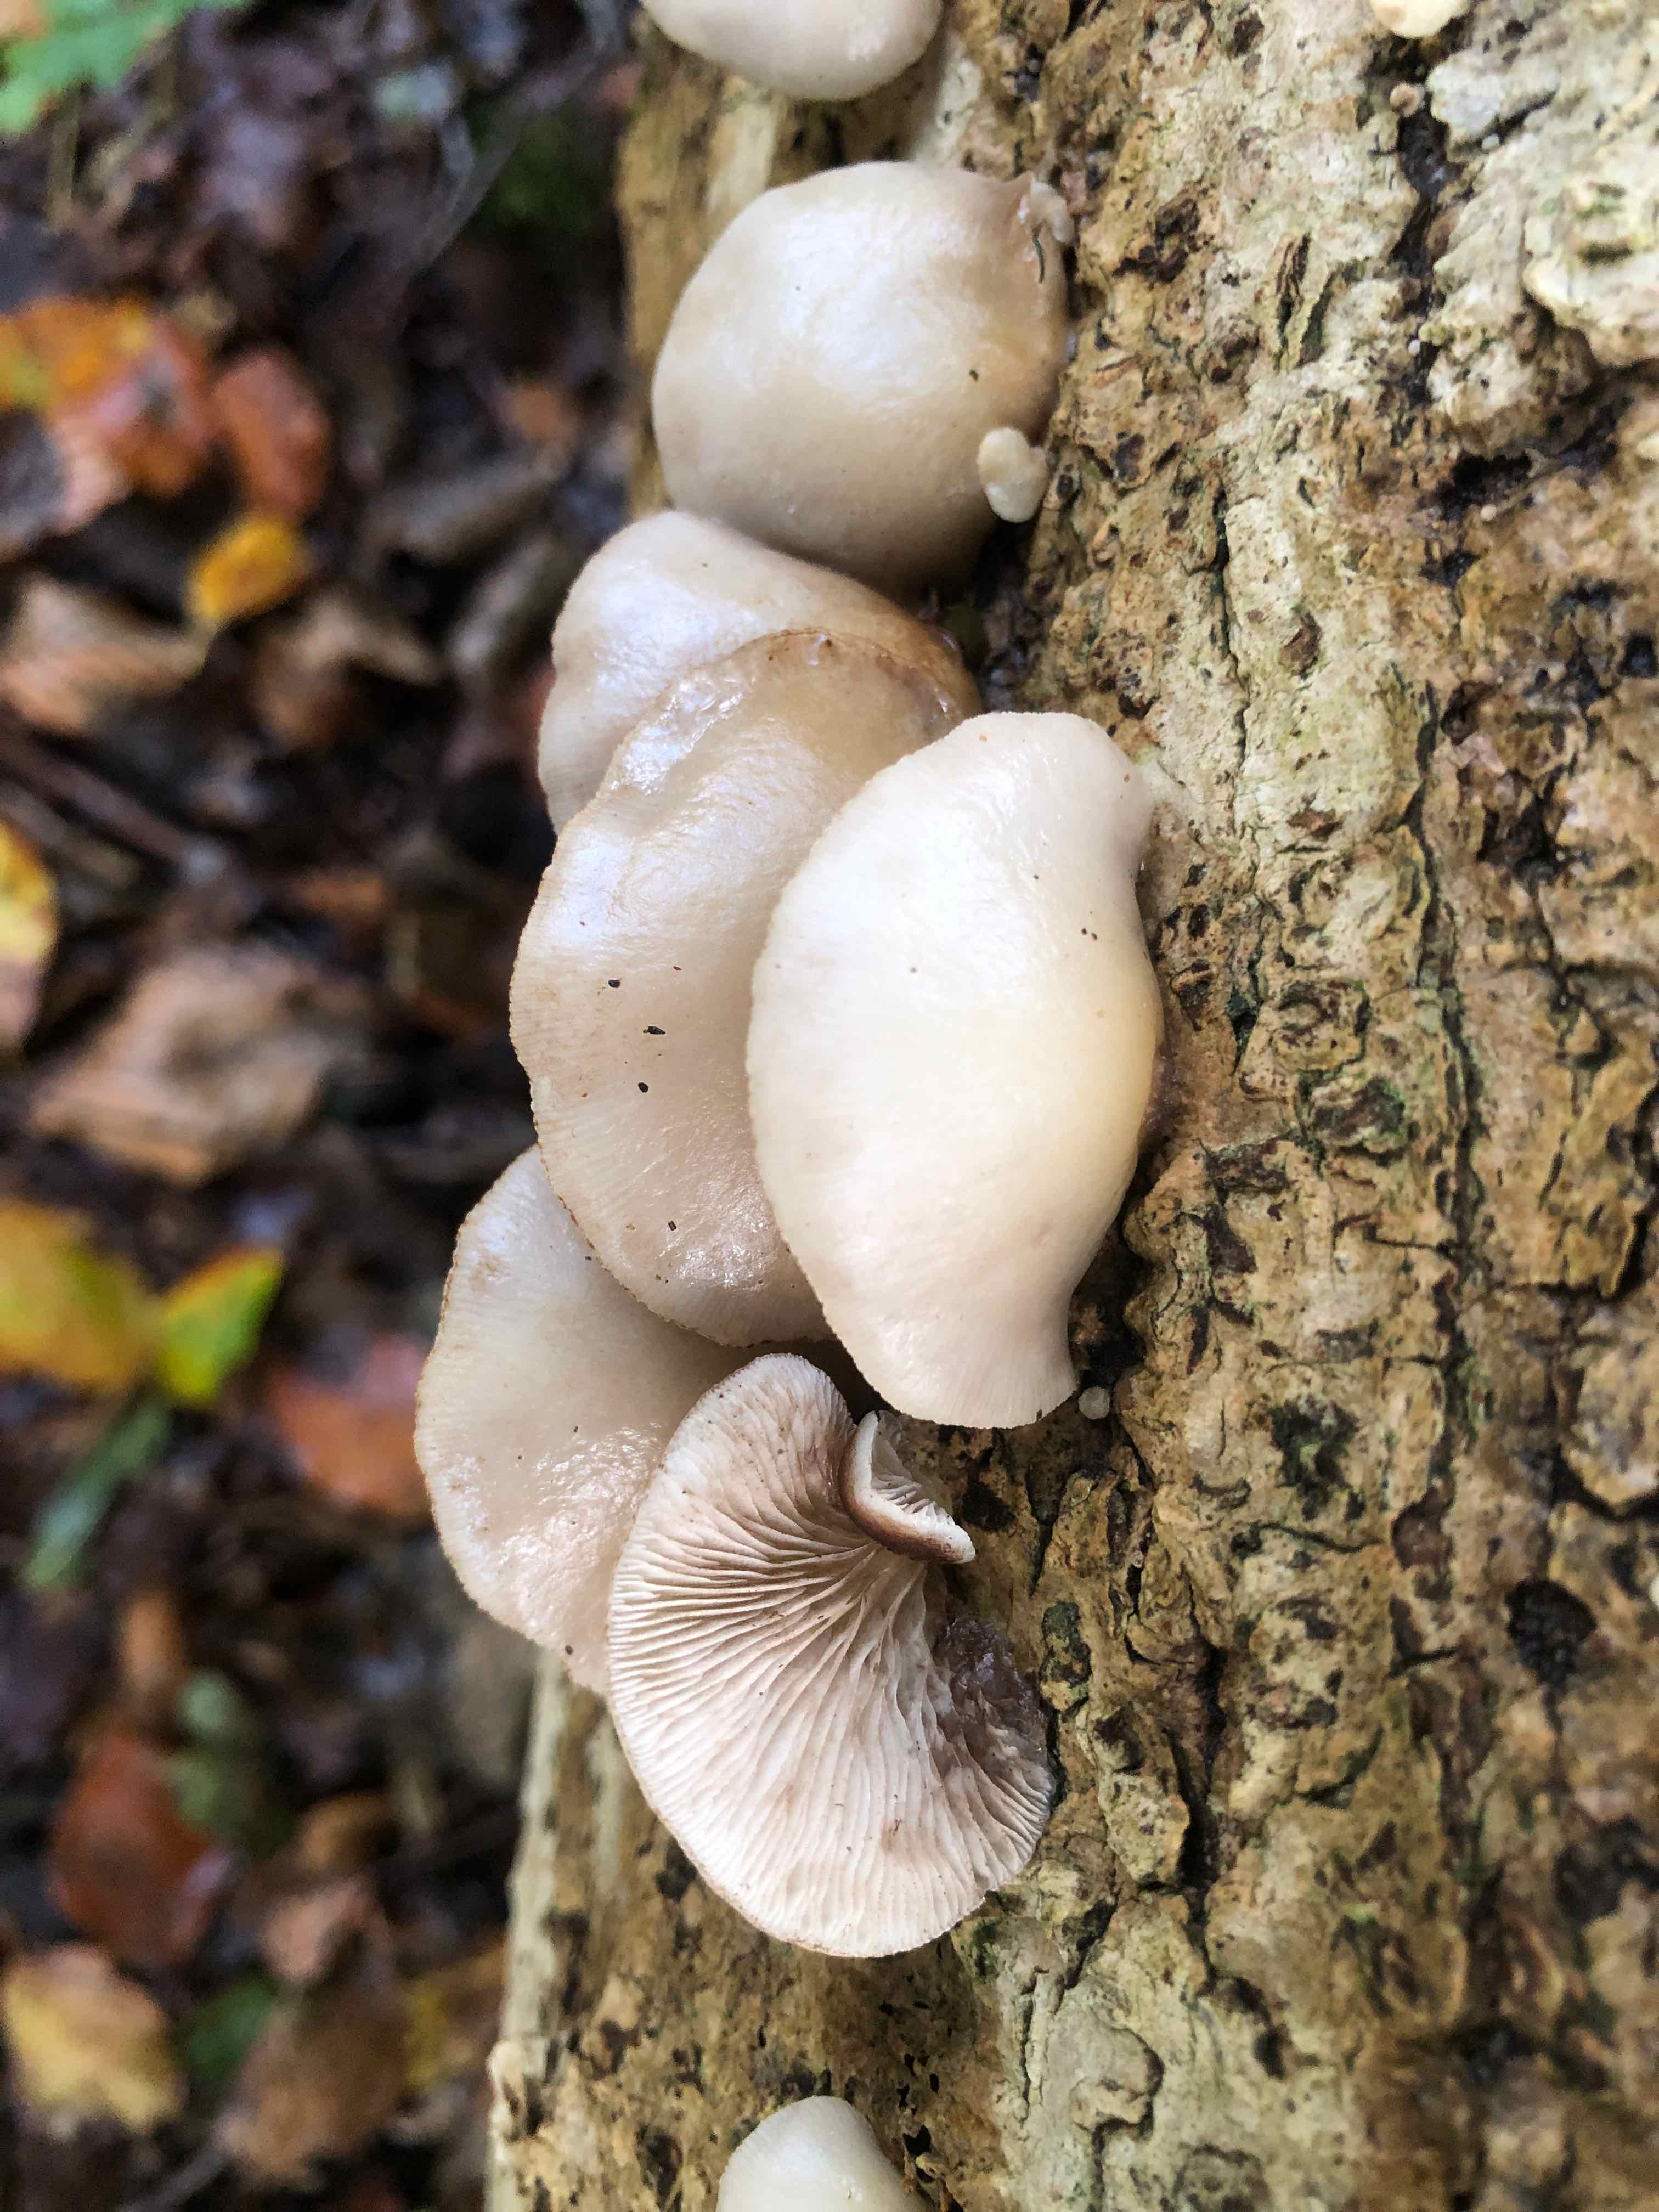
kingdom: Fungi
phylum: Basidiomycota
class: Agaricomycetes
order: Agaricales
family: Crepidotaceae
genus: Crepidotus
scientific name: Crepidotus mollis
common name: blød muslingesvamp
